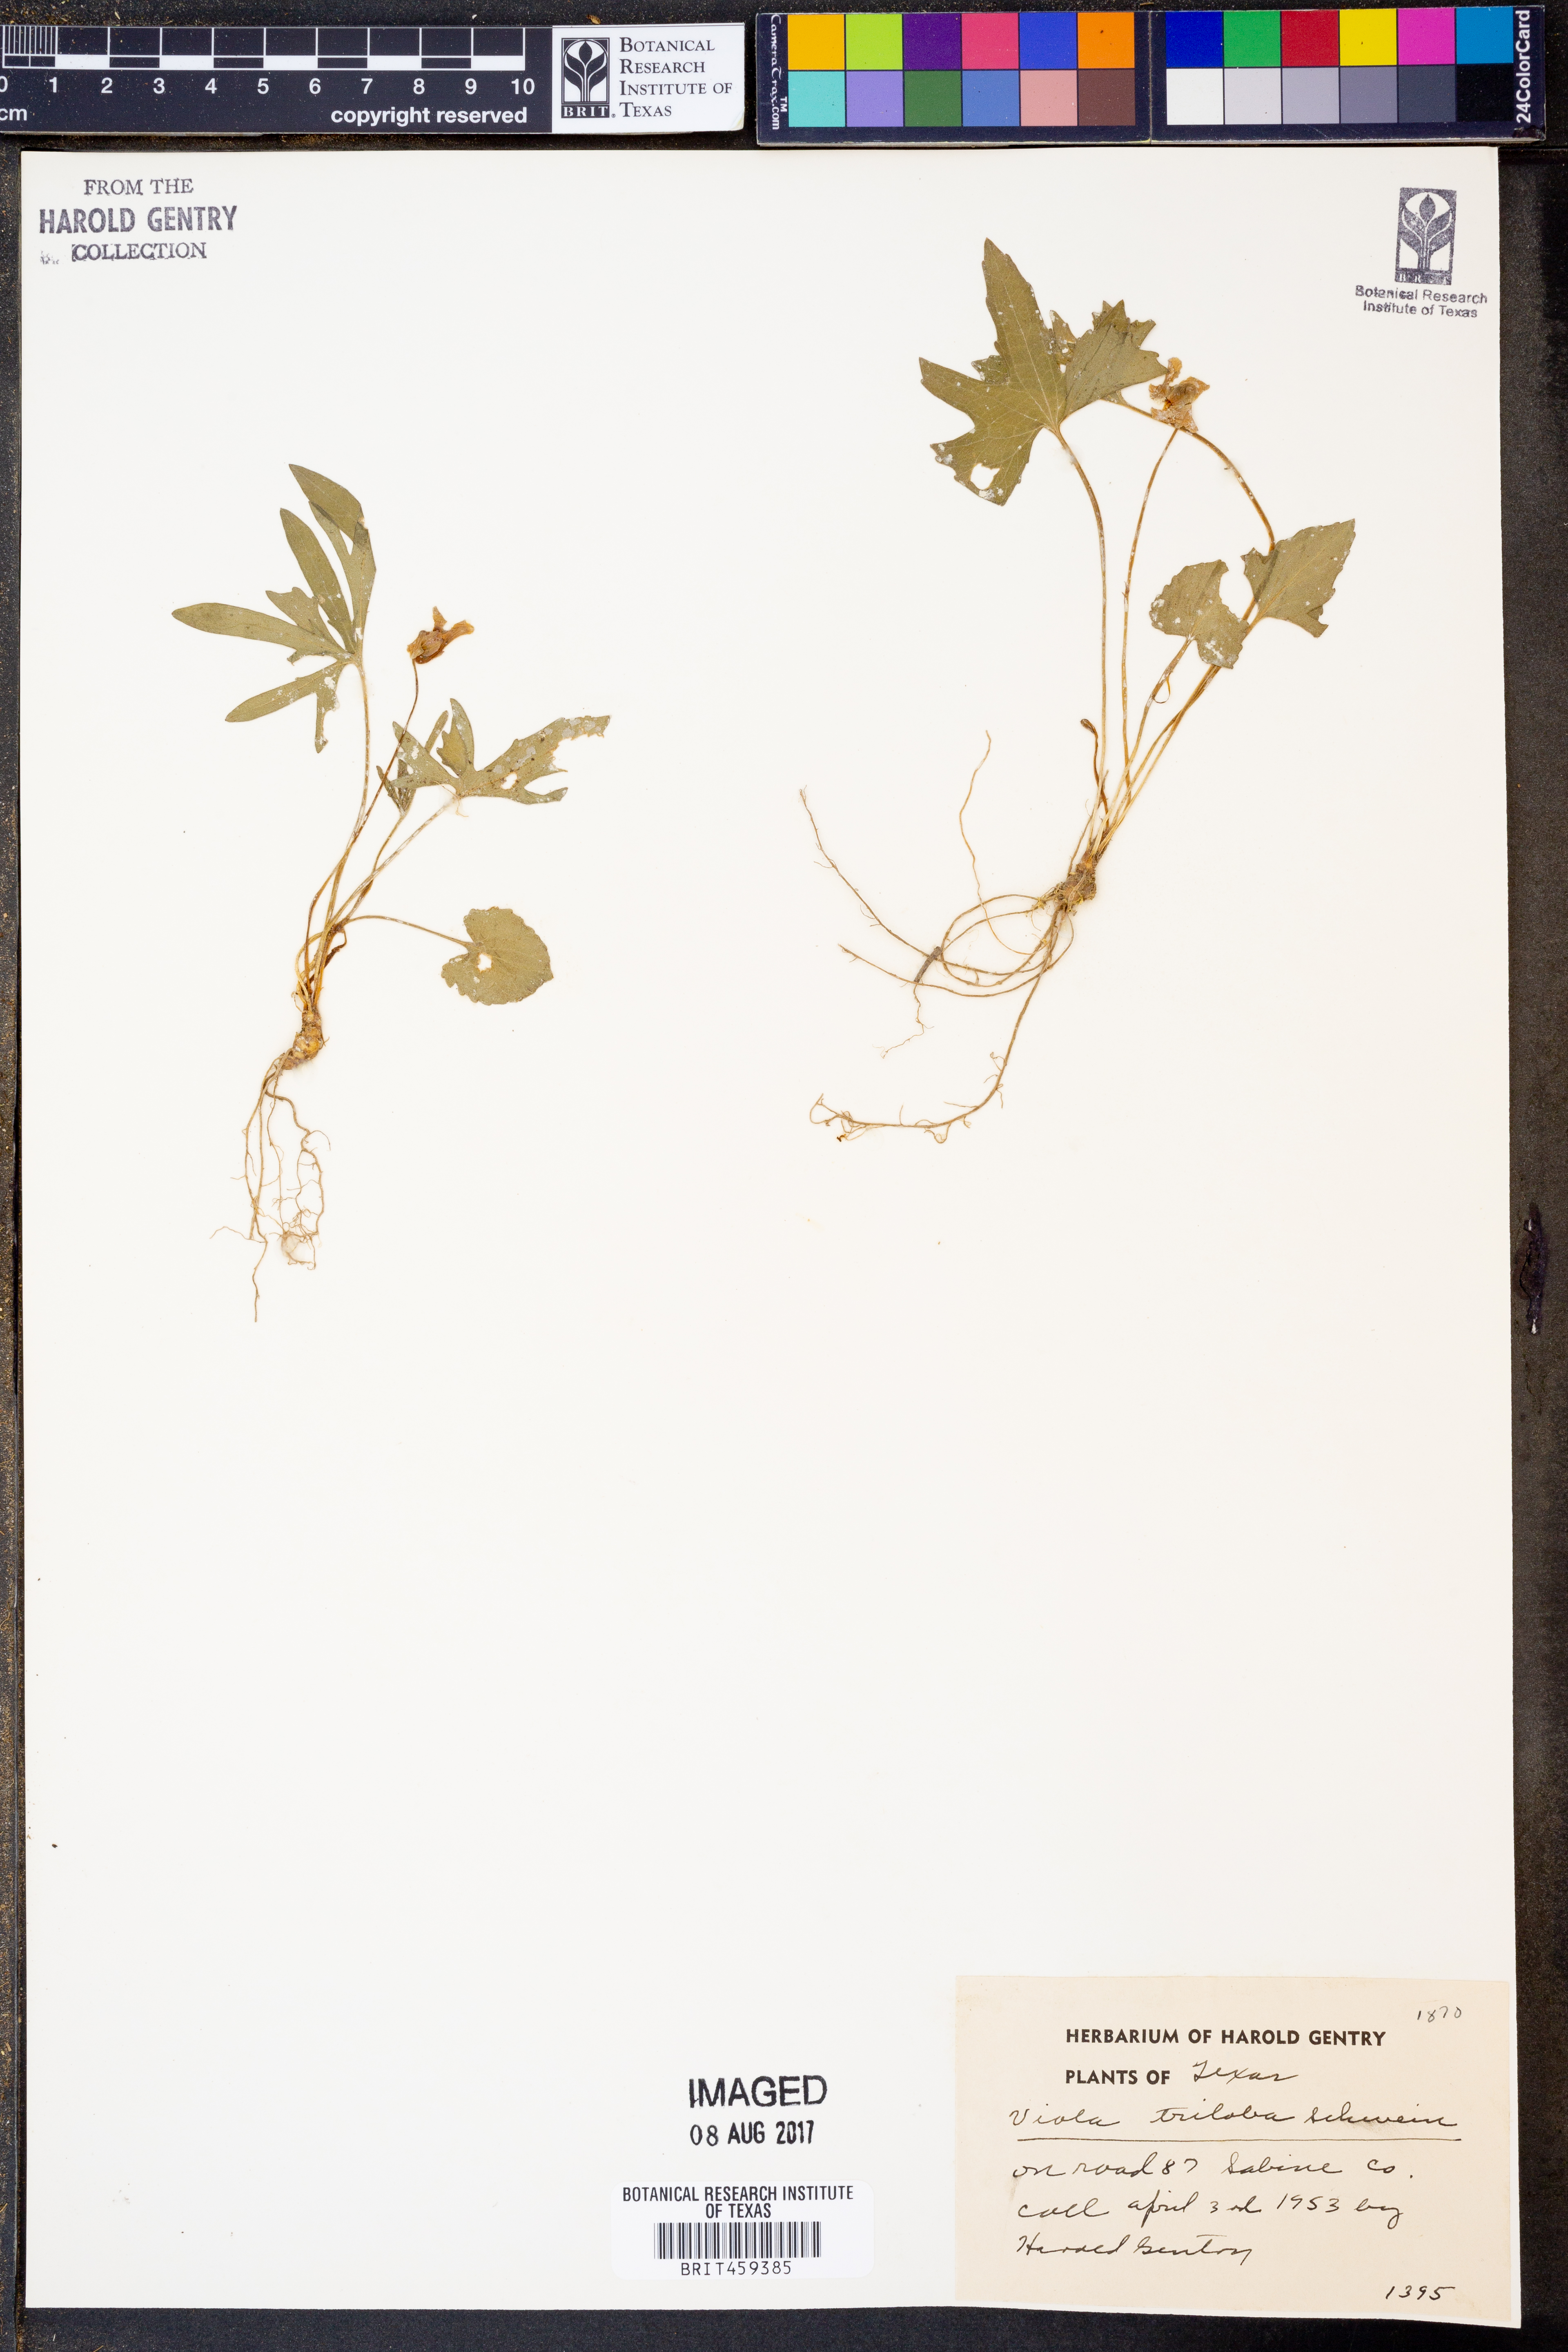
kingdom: Plantae
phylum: Tracheophyta
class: Magnoliopsida
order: Malpighiales
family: Violaceae
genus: Viola
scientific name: Viola palmata
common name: Early blue violet
